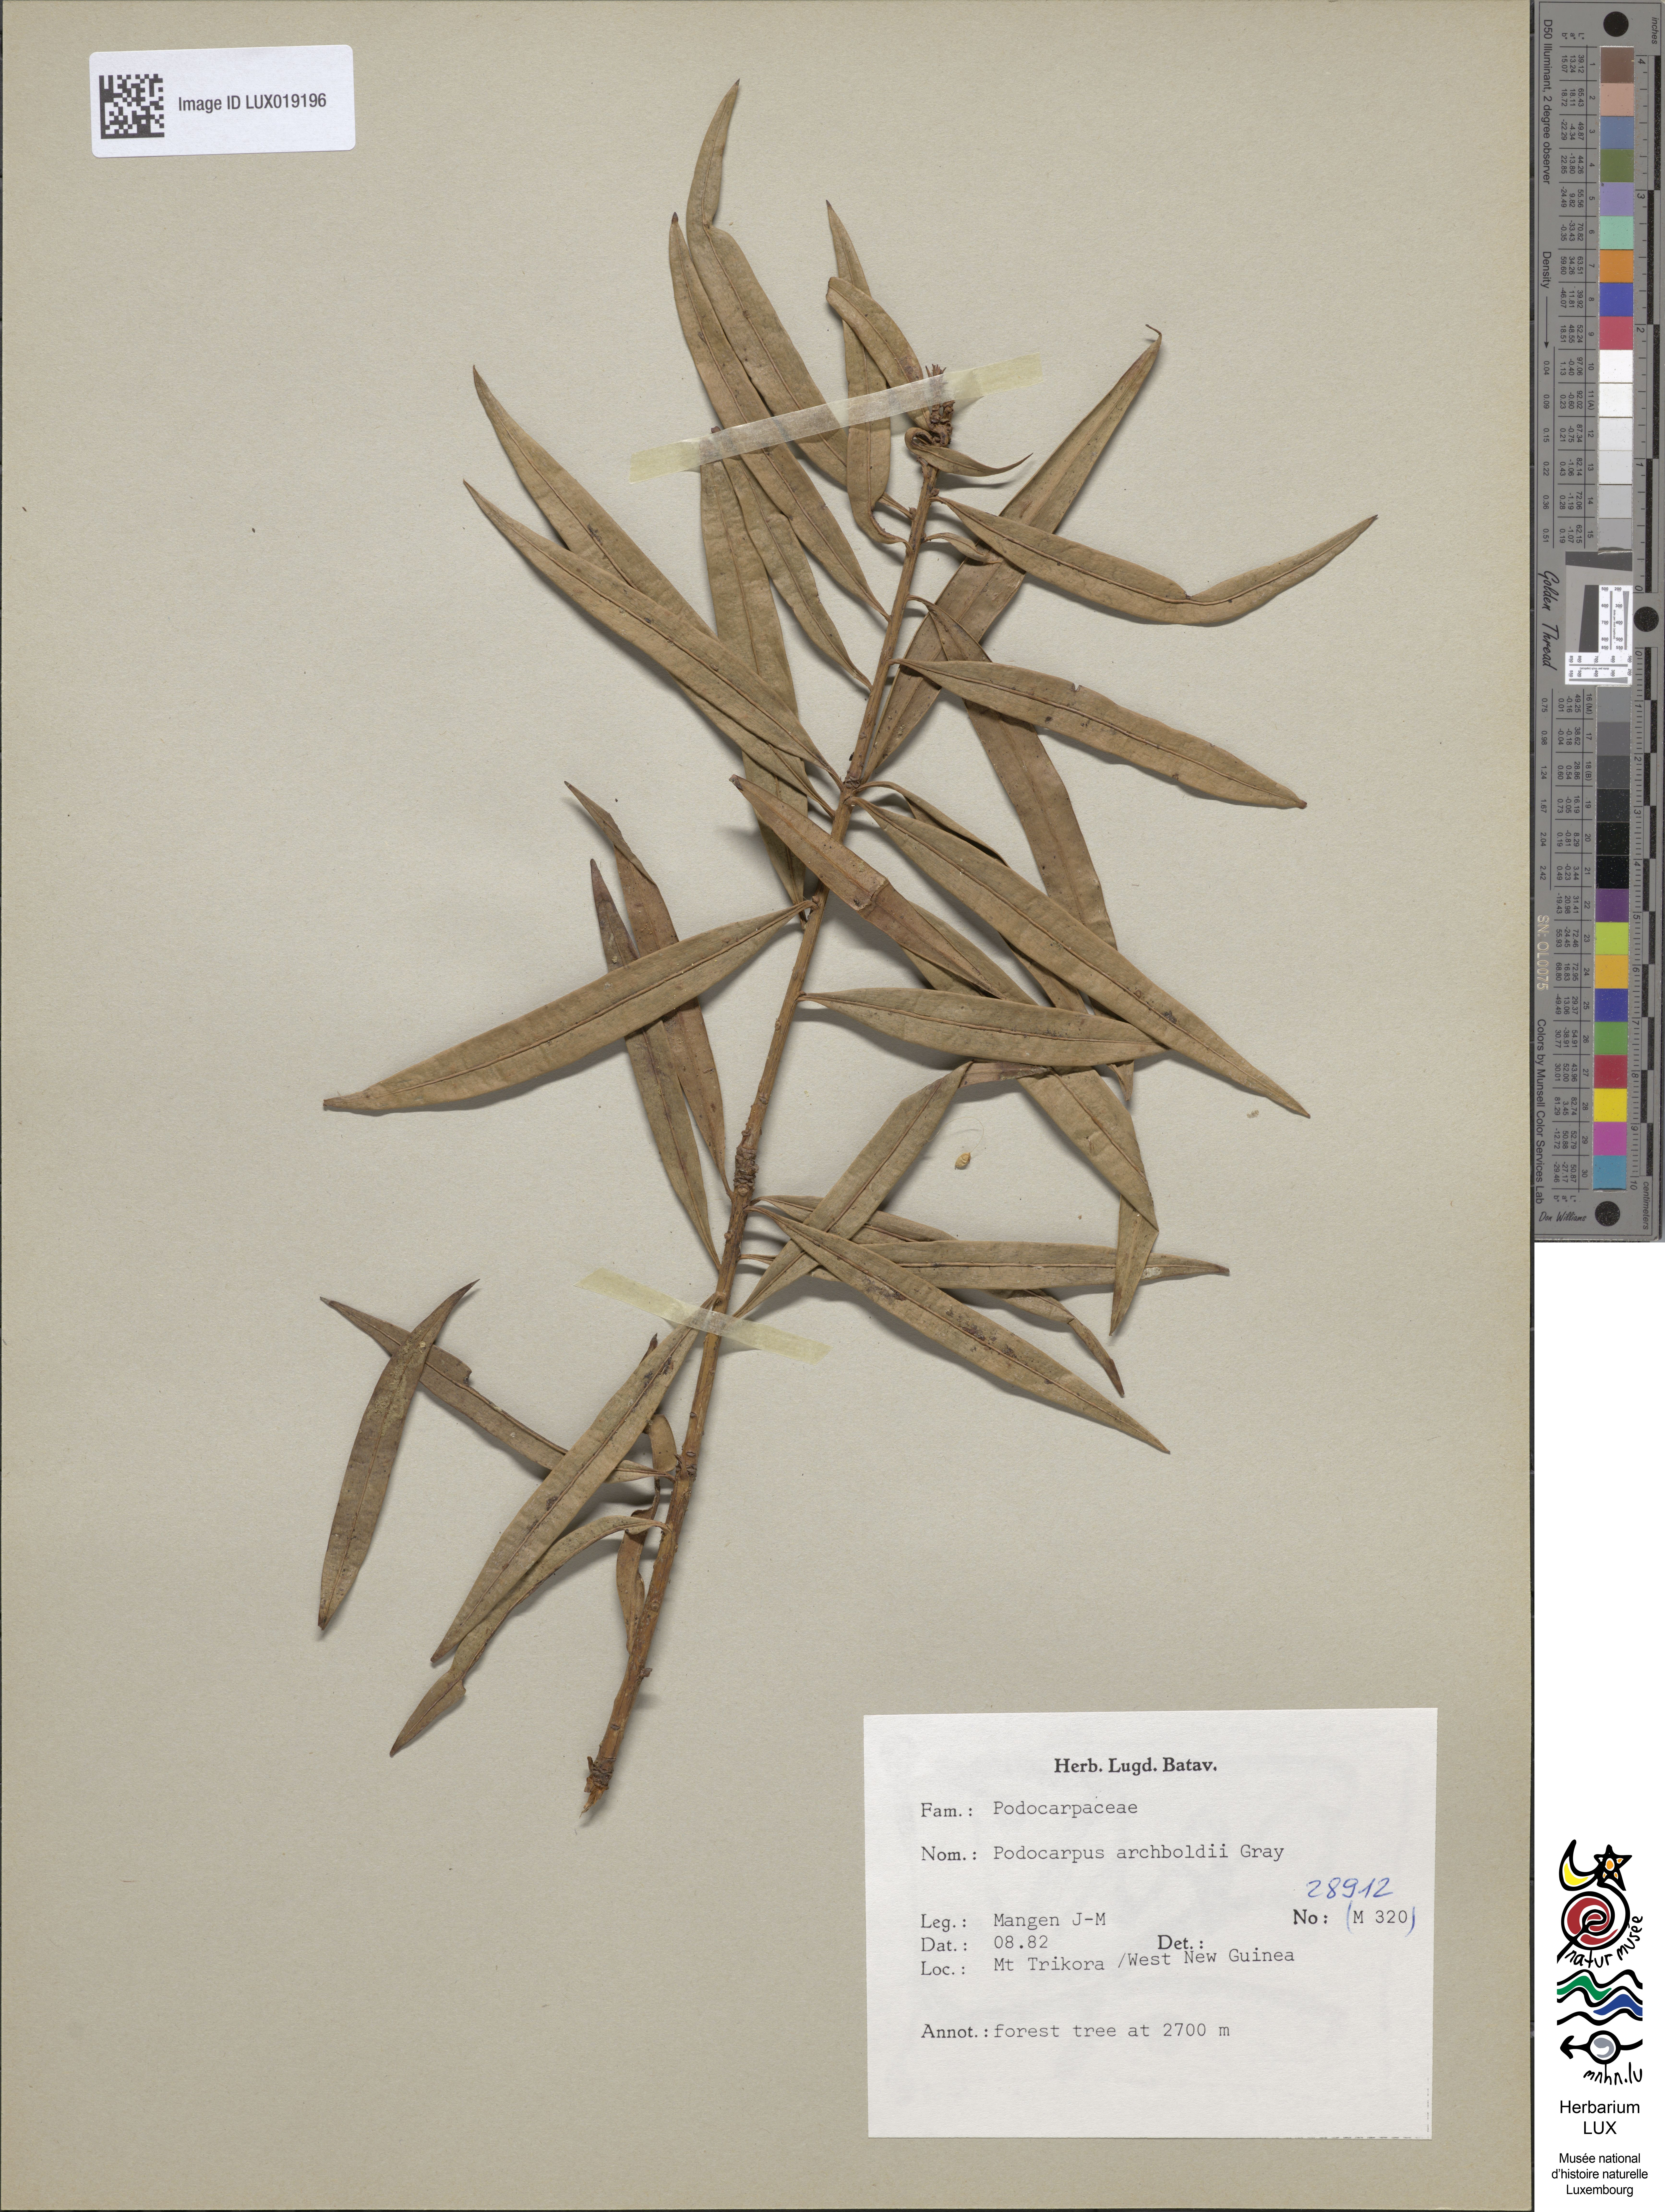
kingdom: Plantae
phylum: Tracheophyta
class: Pinopsida
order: Pinales
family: Podocarpaceae
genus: Podocarpus
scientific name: Podocarpus archboldii
